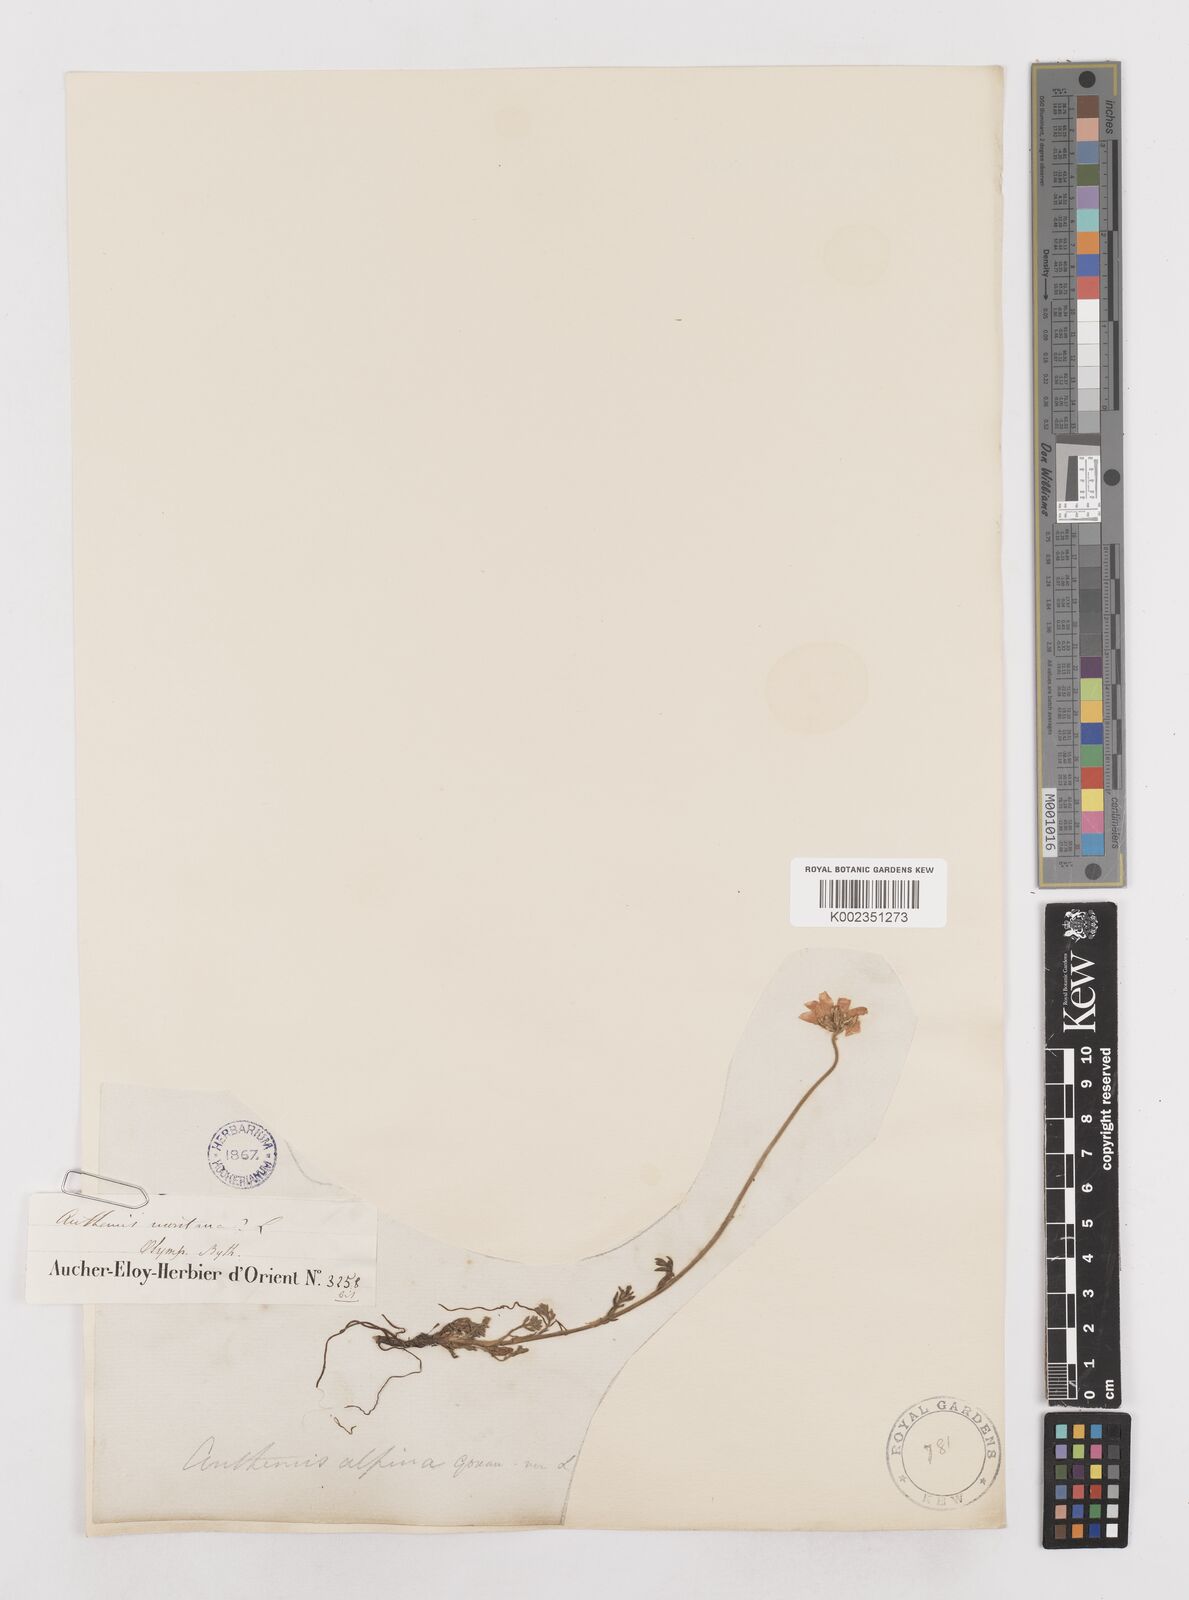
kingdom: Plantae
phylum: Tracheophyta
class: Magnoliopsida
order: Asterales
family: Asteraceae
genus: Anthemis
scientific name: Anthemis cretica
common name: Mountain dog-daisy
